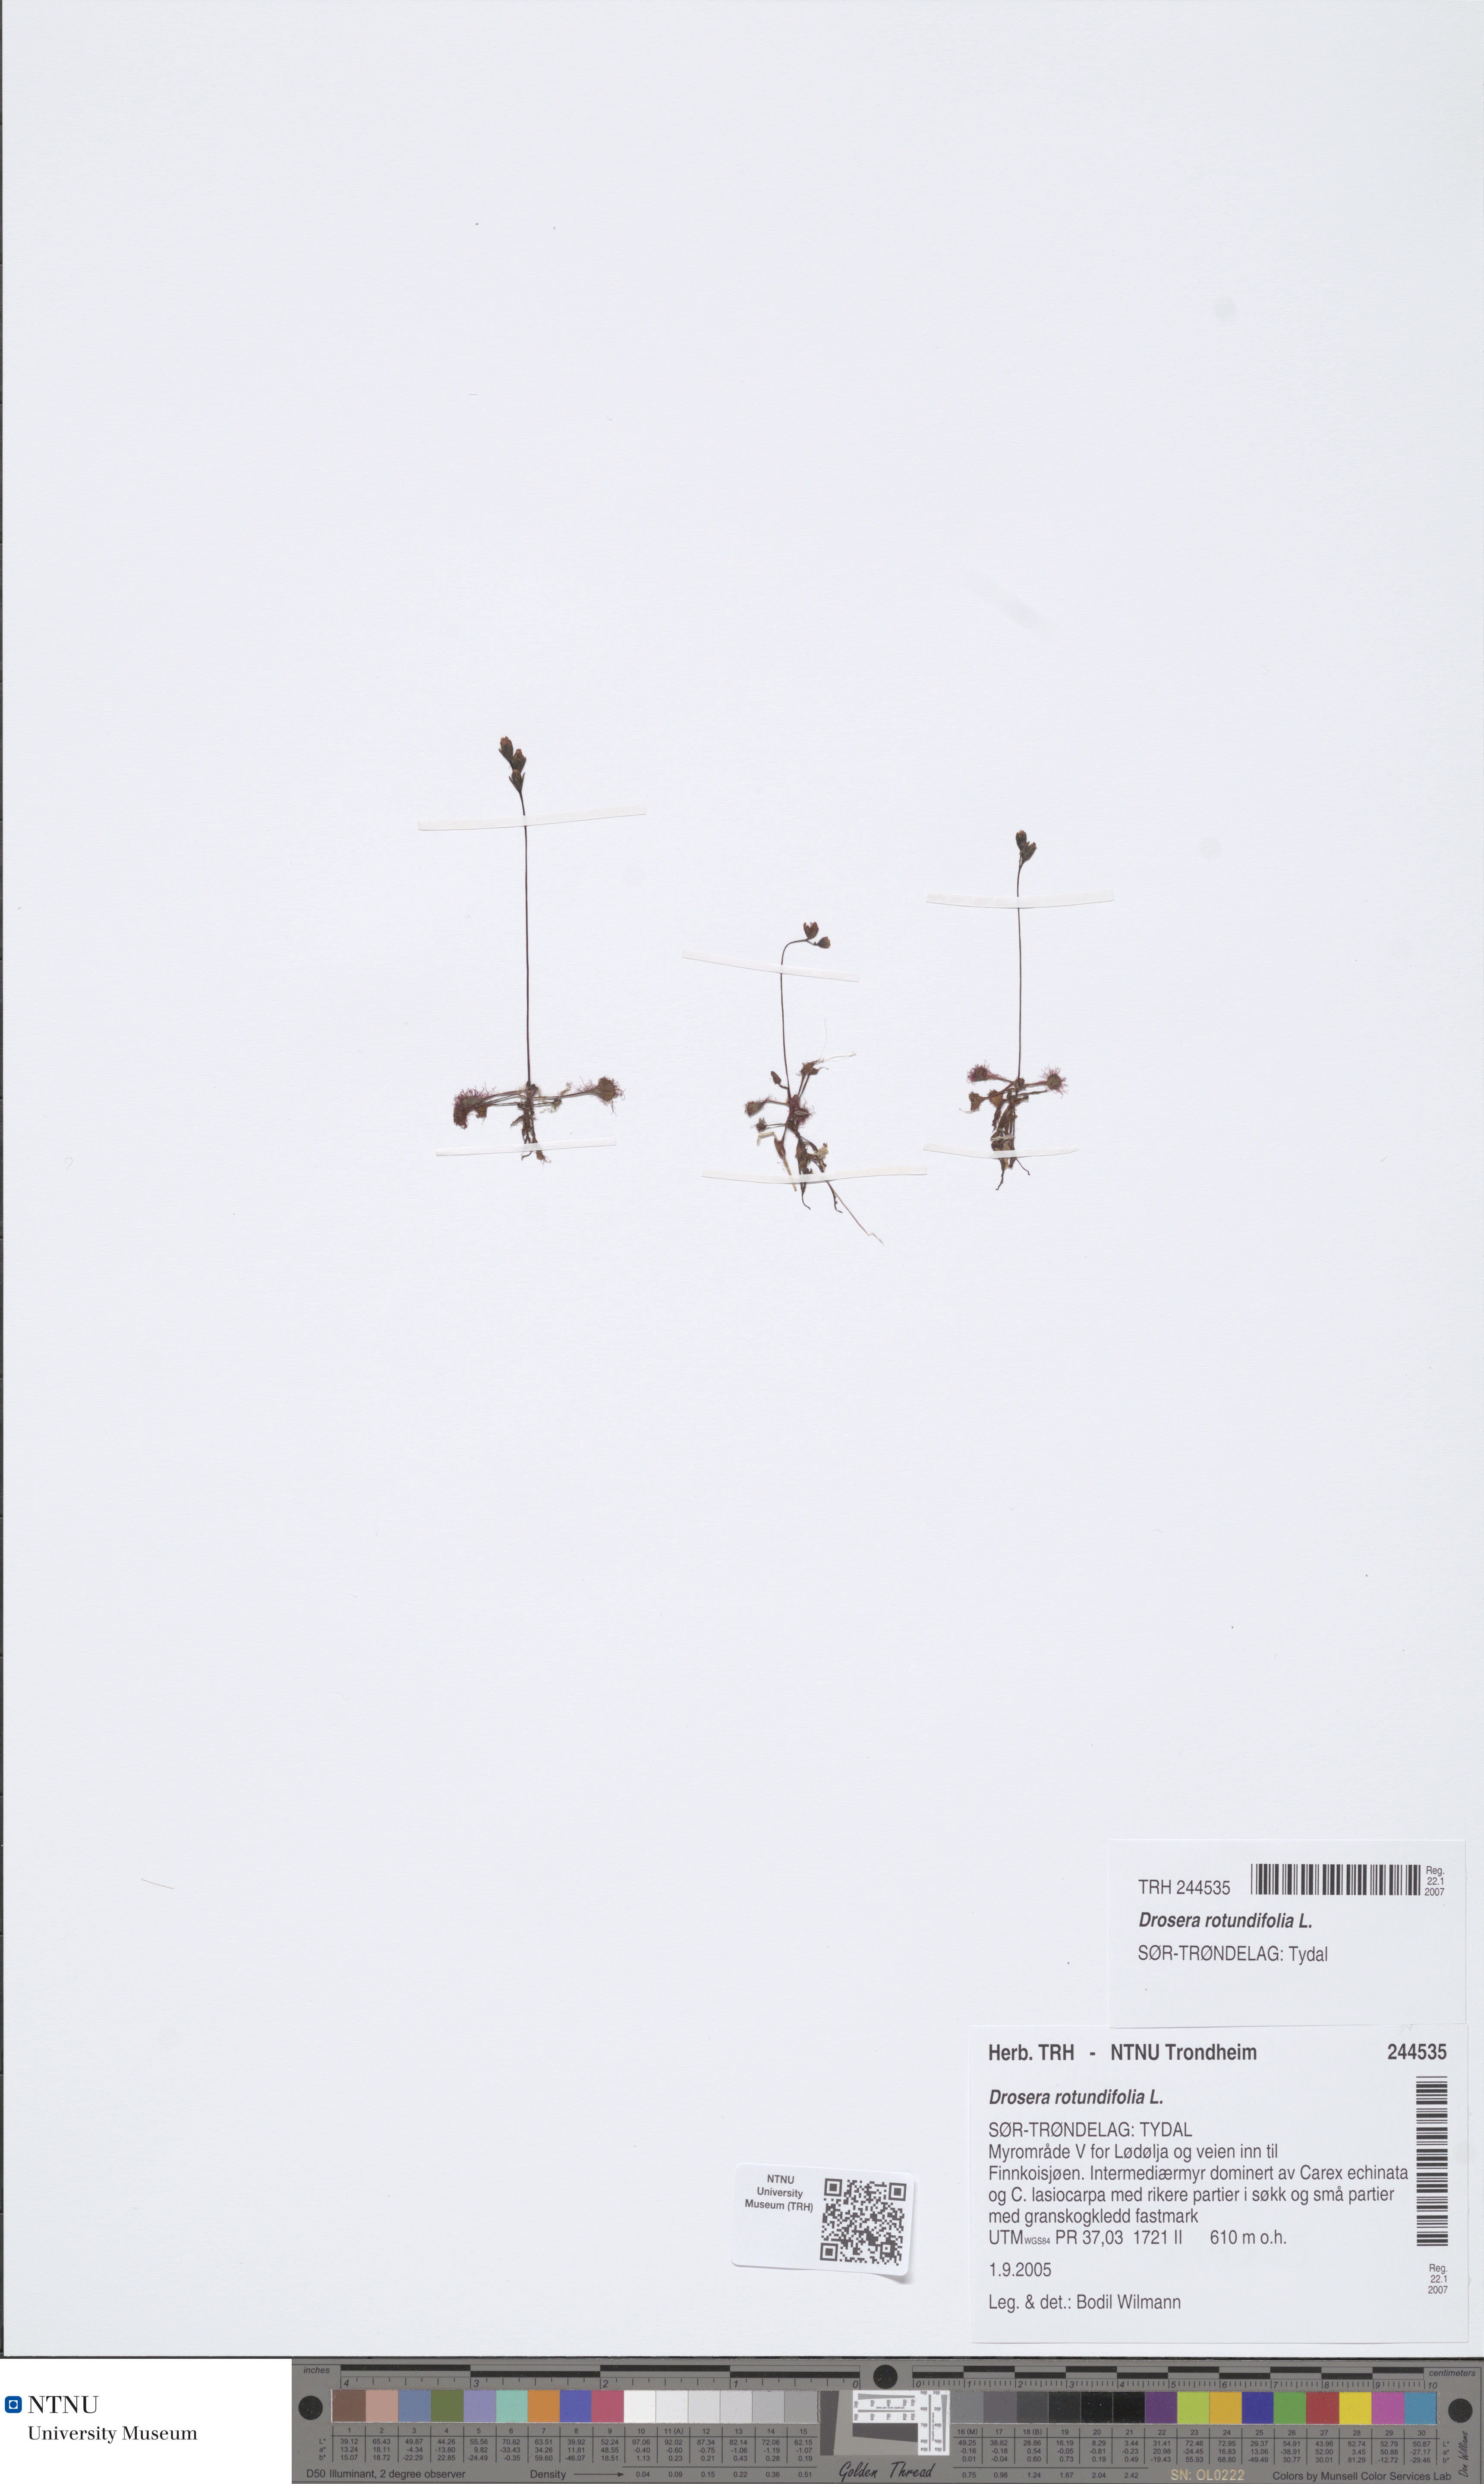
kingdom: Plantae
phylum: Tracheophyta
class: Magnoliopsida
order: Caryophyllales
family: Droseraceae
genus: Drosera
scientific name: Drosera rotundifolia
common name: Round-leaved sundew
